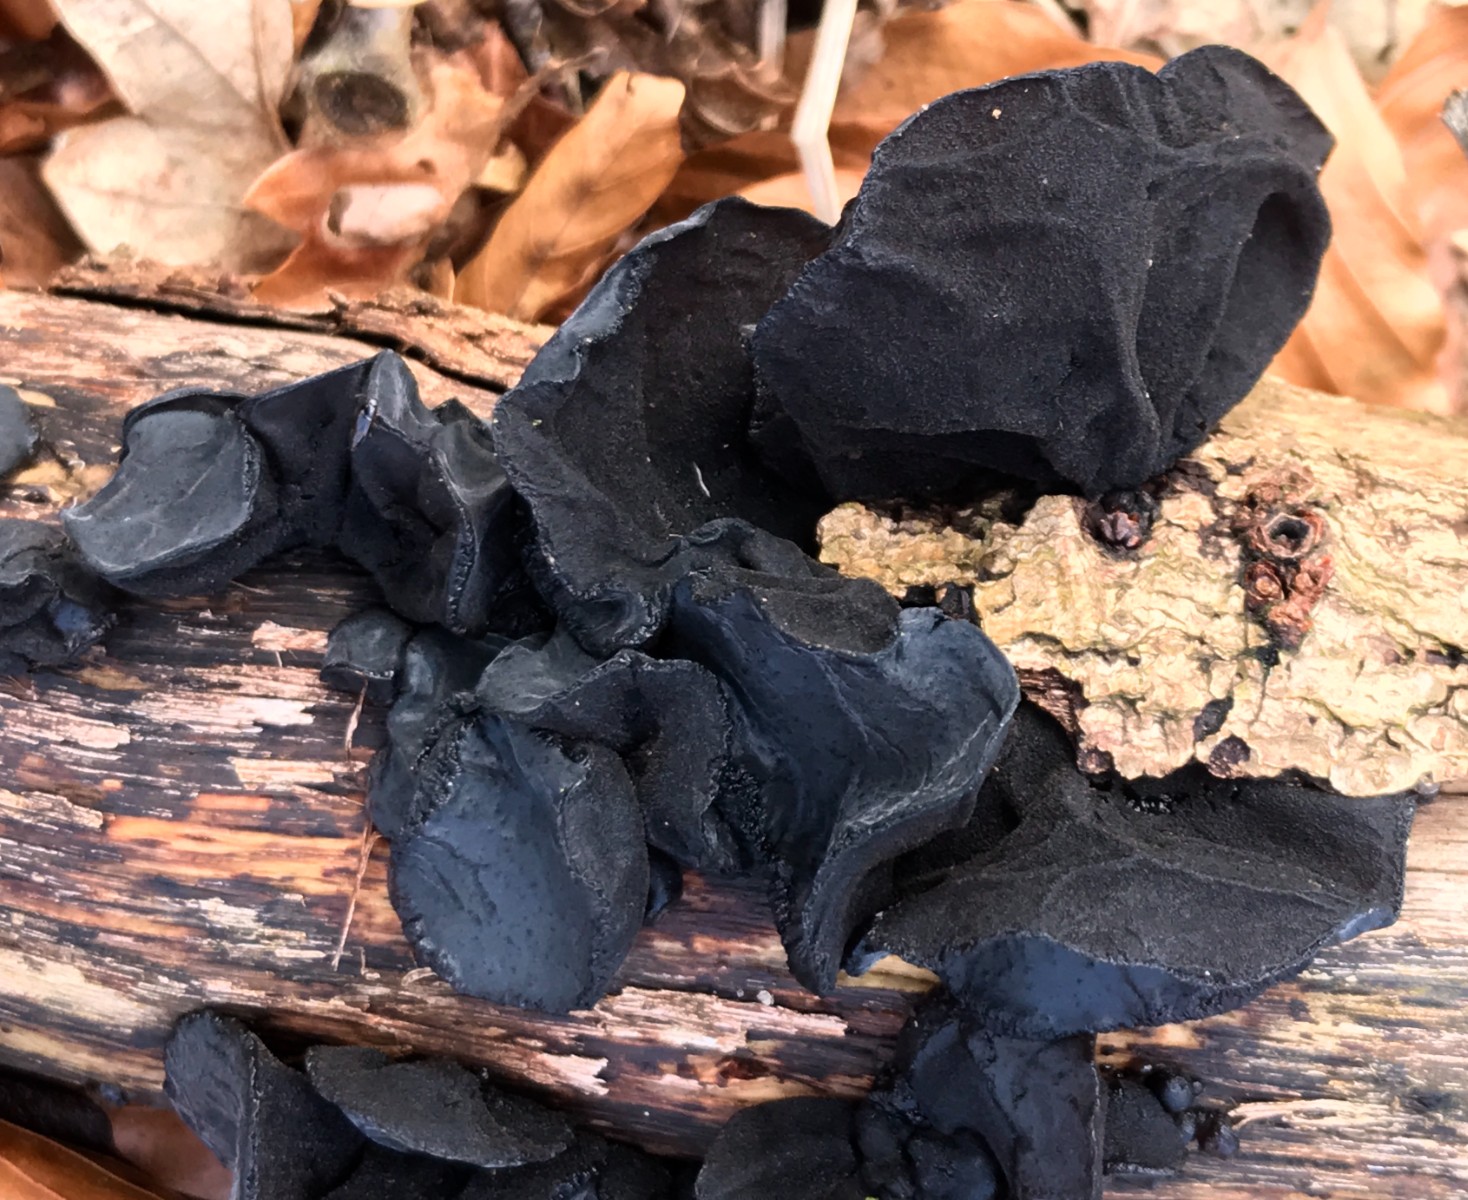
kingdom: Fungi
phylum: Basidiomycota
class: Agaricomycetes
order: Auriculariales
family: Auriculariaceae
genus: Exidia
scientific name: Exidia glandulosa
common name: ege-bævretop
